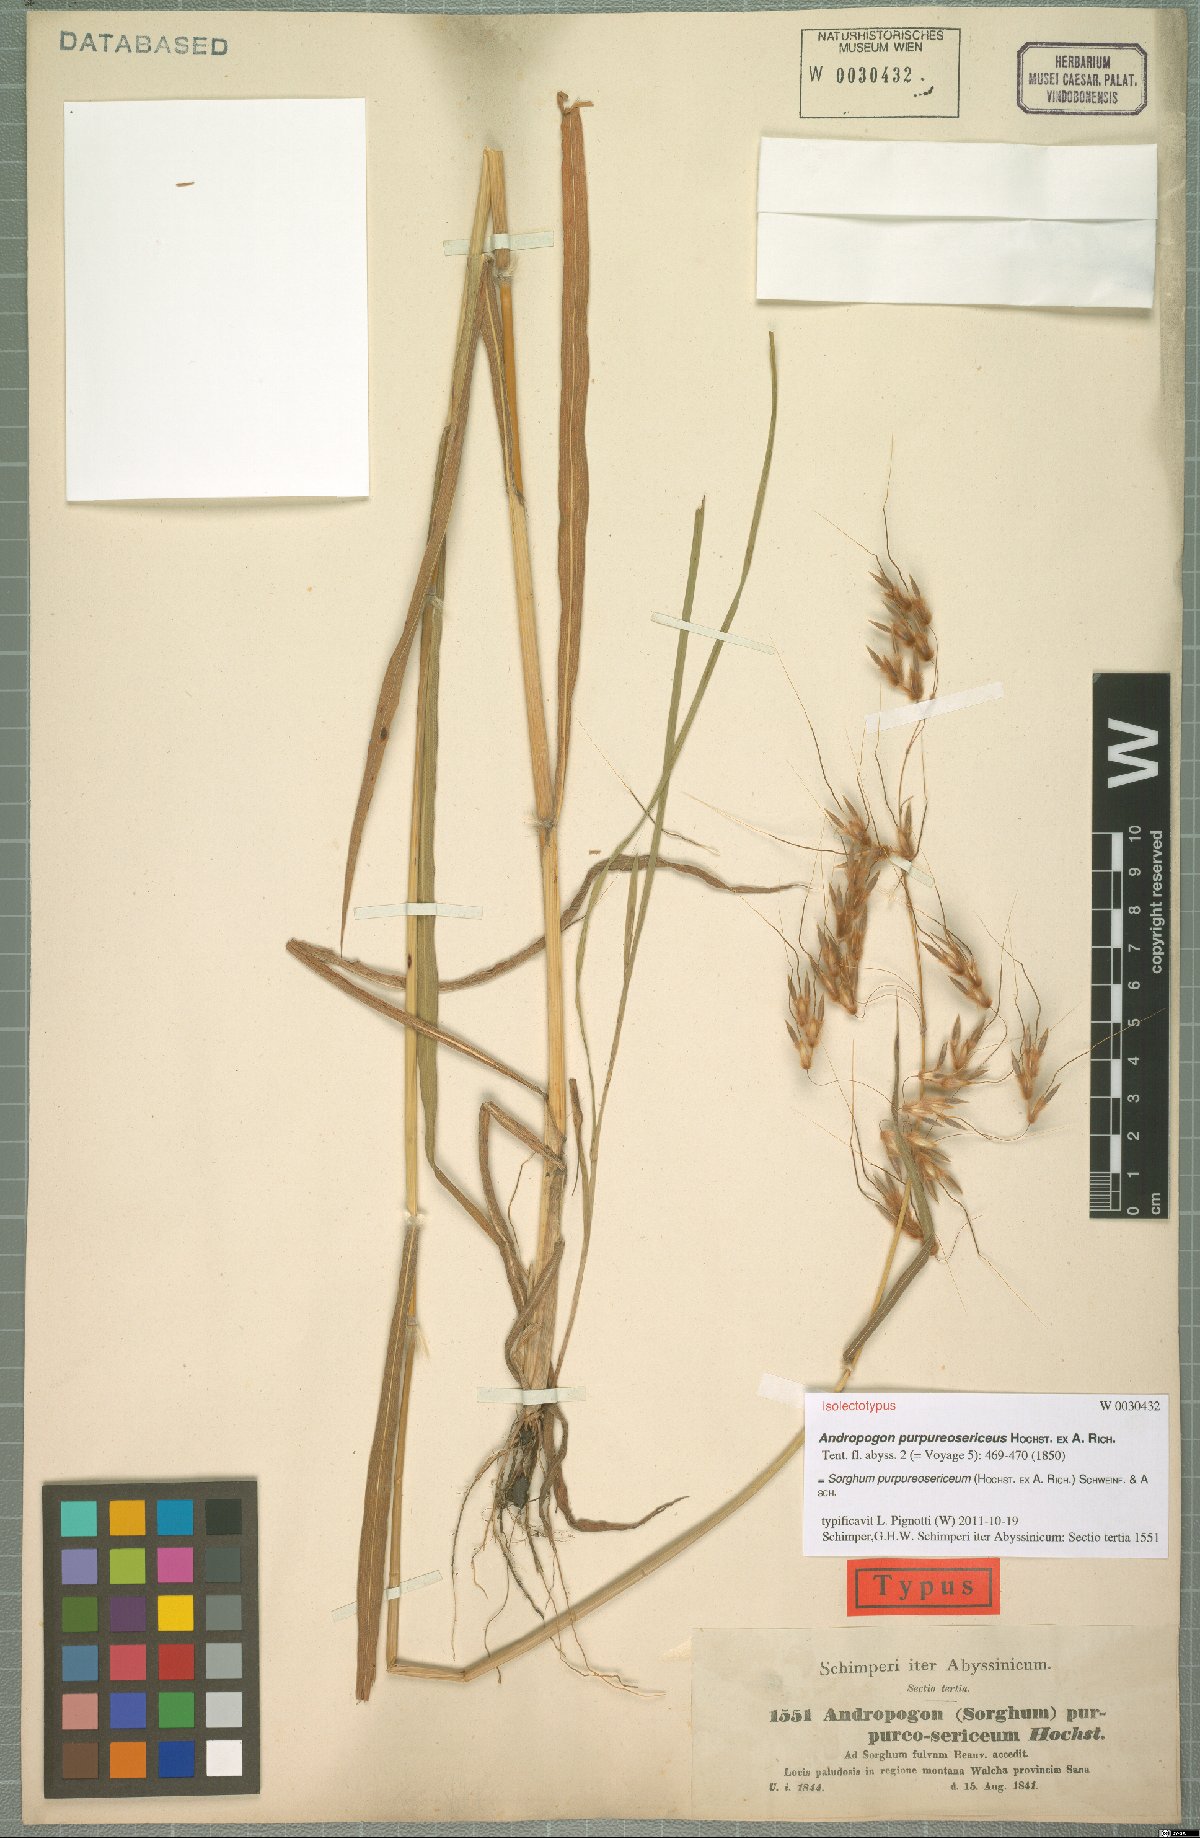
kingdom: Plantae
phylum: Tracheophyta
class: Liliopsida
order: Poales
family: Poaceae
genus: Sarga
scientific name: Sarga purpureosericea
